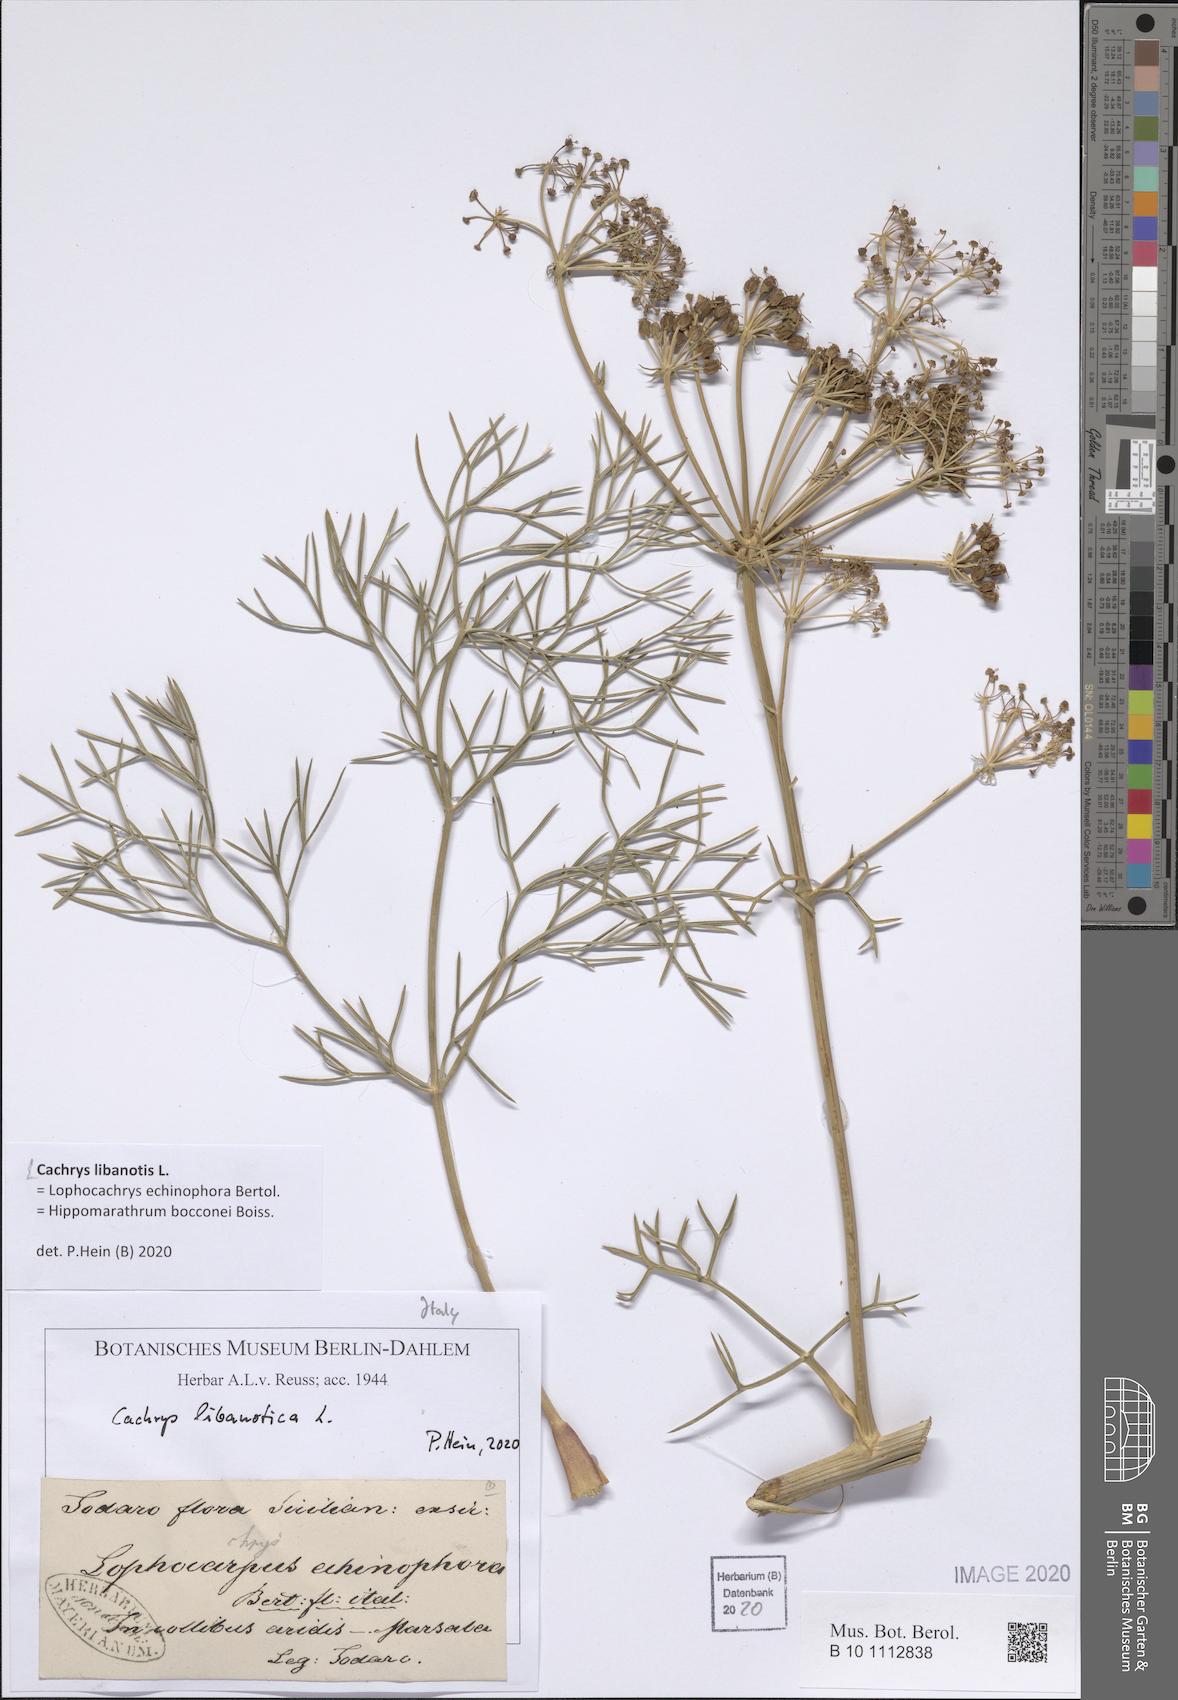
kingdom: Plantae
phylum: Tracheophyta
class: Magnoliopsida
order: Apiales
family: Apiaceae
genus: Cachrys
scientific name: Cachrys libanotis
